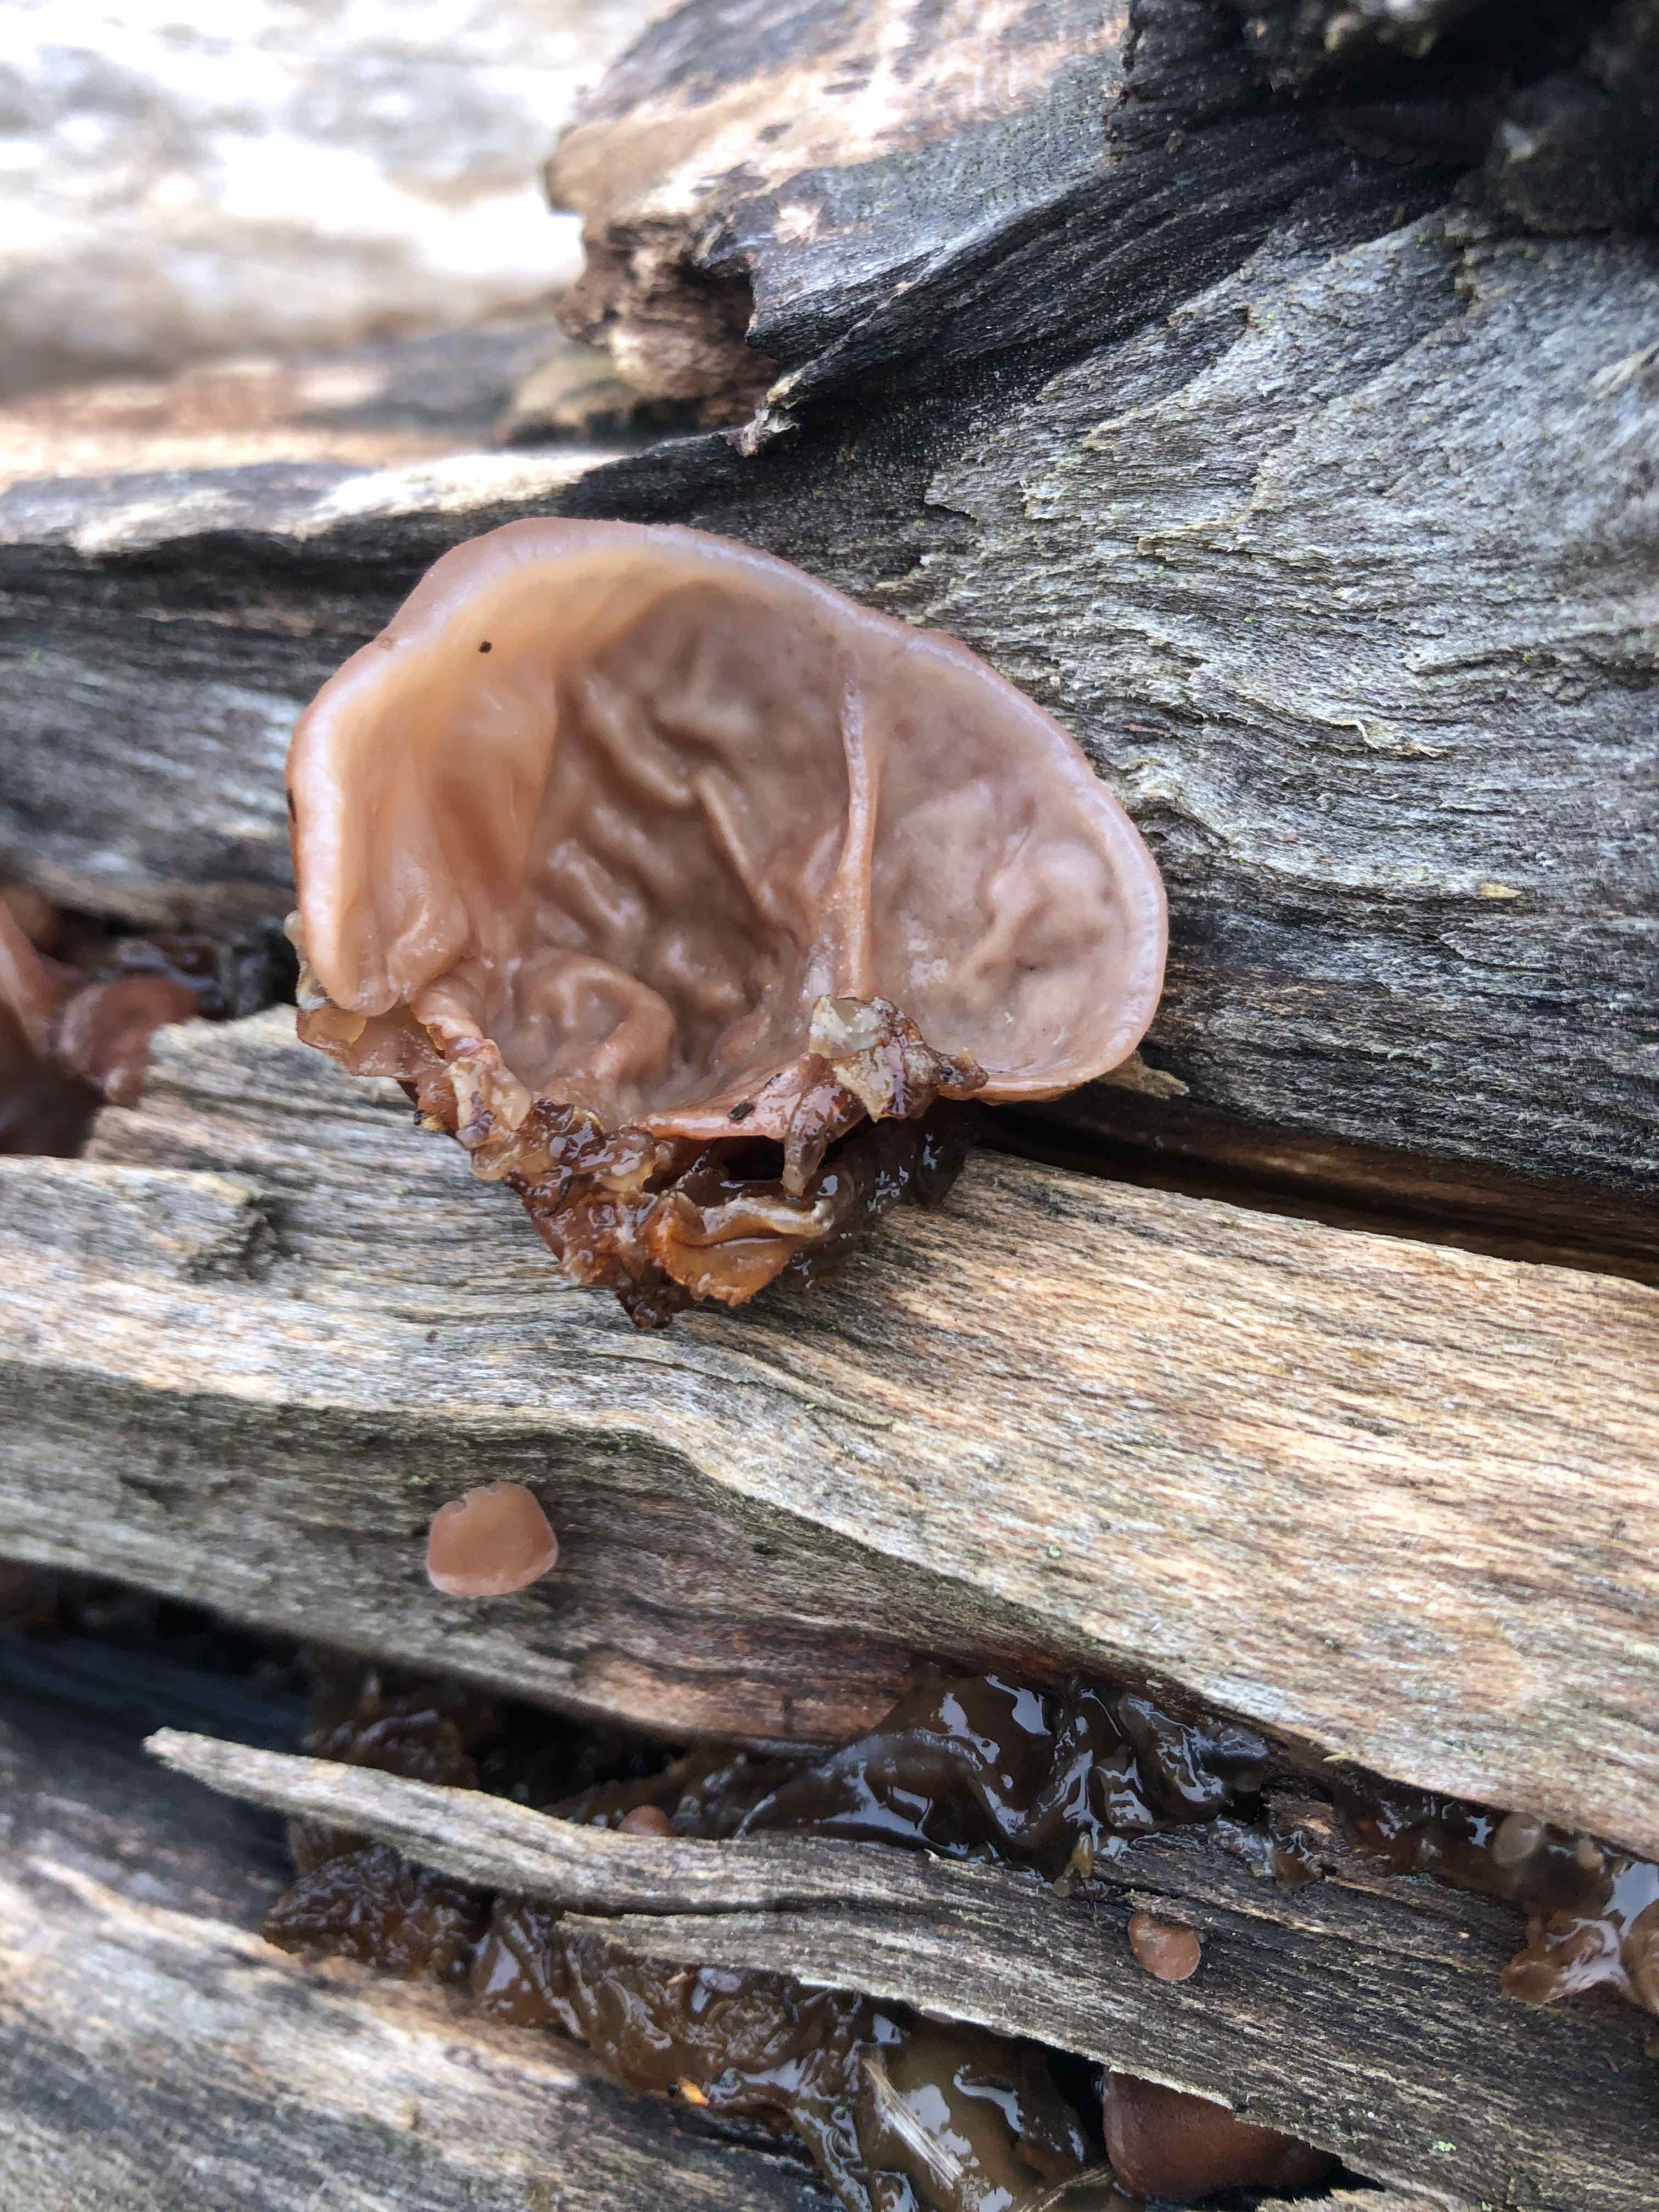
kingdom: Fungi
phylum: Basidiomycota
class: Agaricomycetes
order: Auriculariales
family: Auriculariaceae
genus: Auricularia
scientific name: Auricularia auricula-judae
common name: almindelig judasøre
